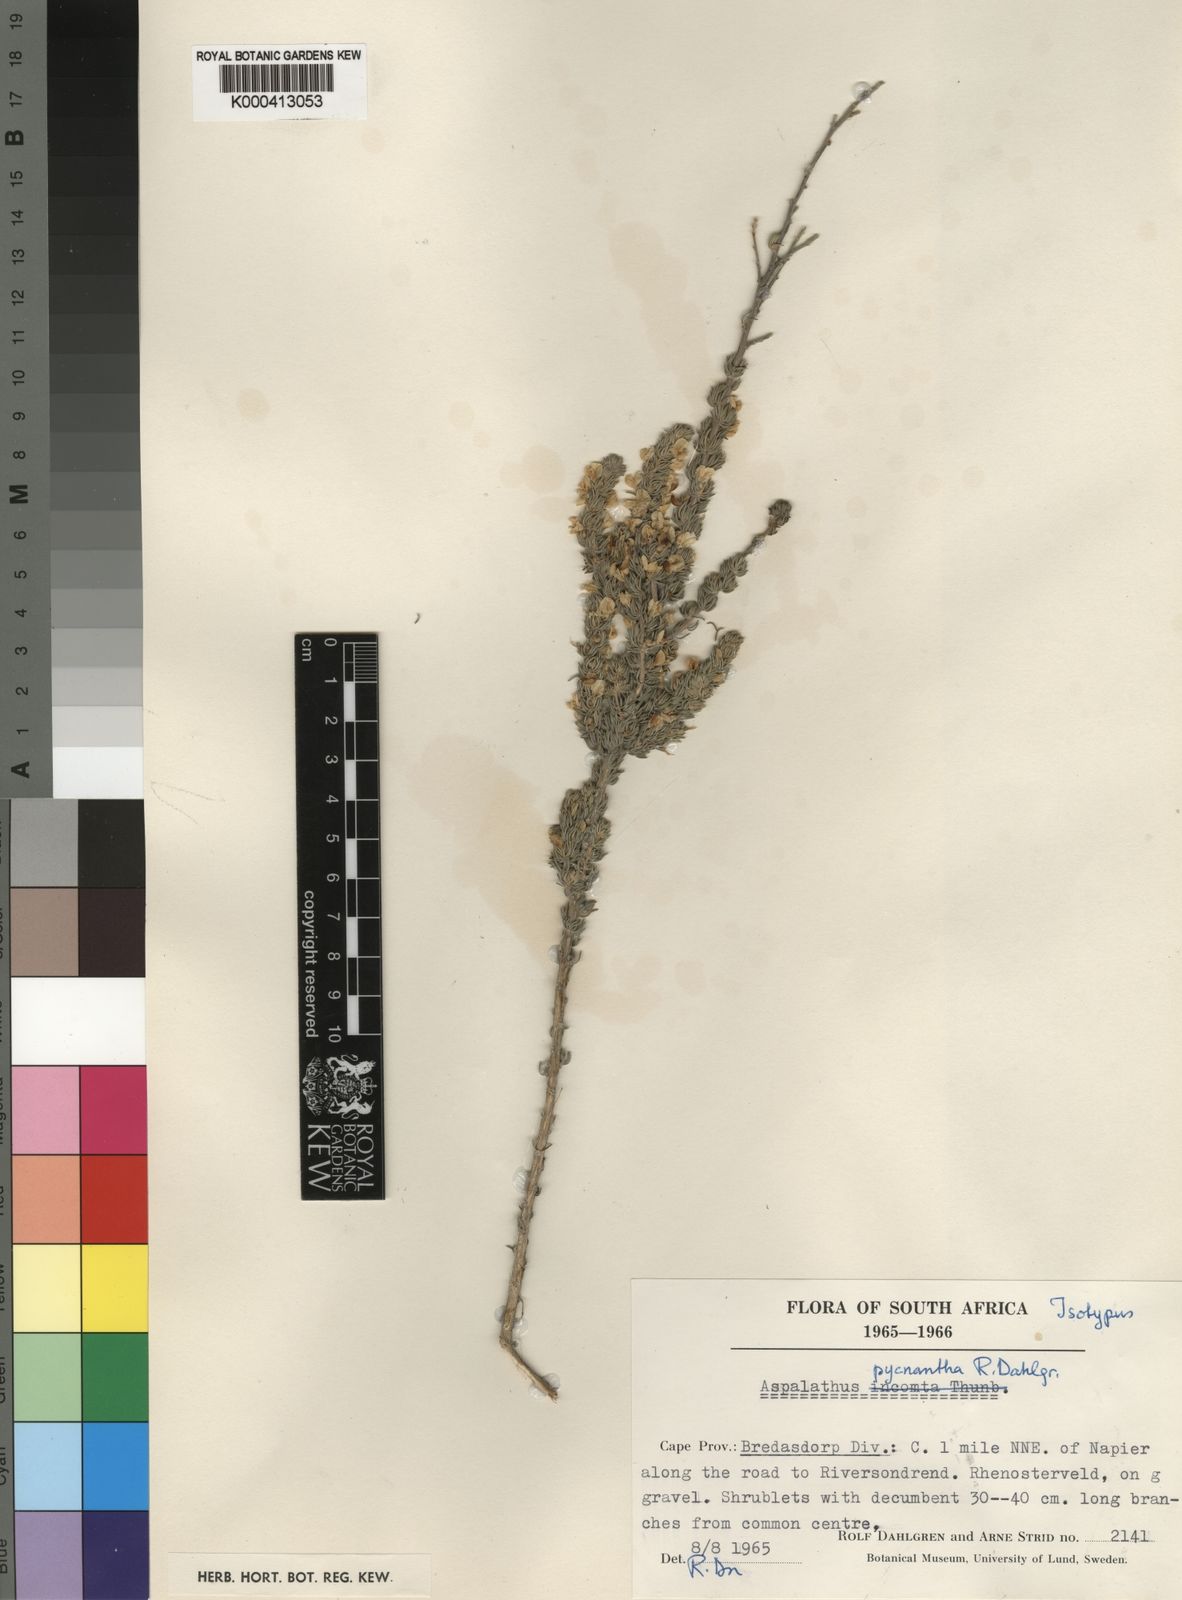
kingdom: Plantae
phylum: Tracheophyta
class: Magnoliopsida
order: Fabales
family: Fabaceae
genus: Aspalathus
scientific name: Aspalathus pycnantha
